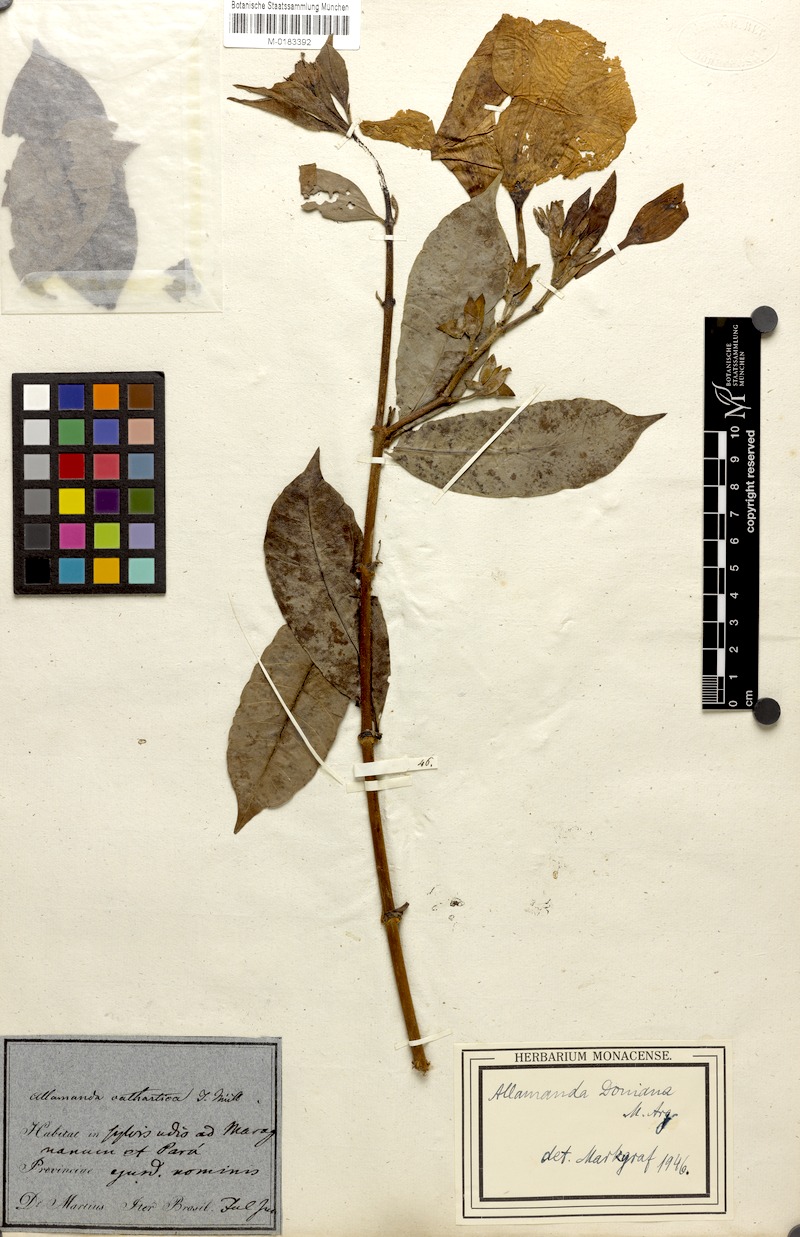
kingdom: Plantae
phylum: Tracheophyta
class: Magnoliopsida
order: Gentianales
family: Apocynaceae
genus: Allamanda
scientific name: Allamanda doniana
